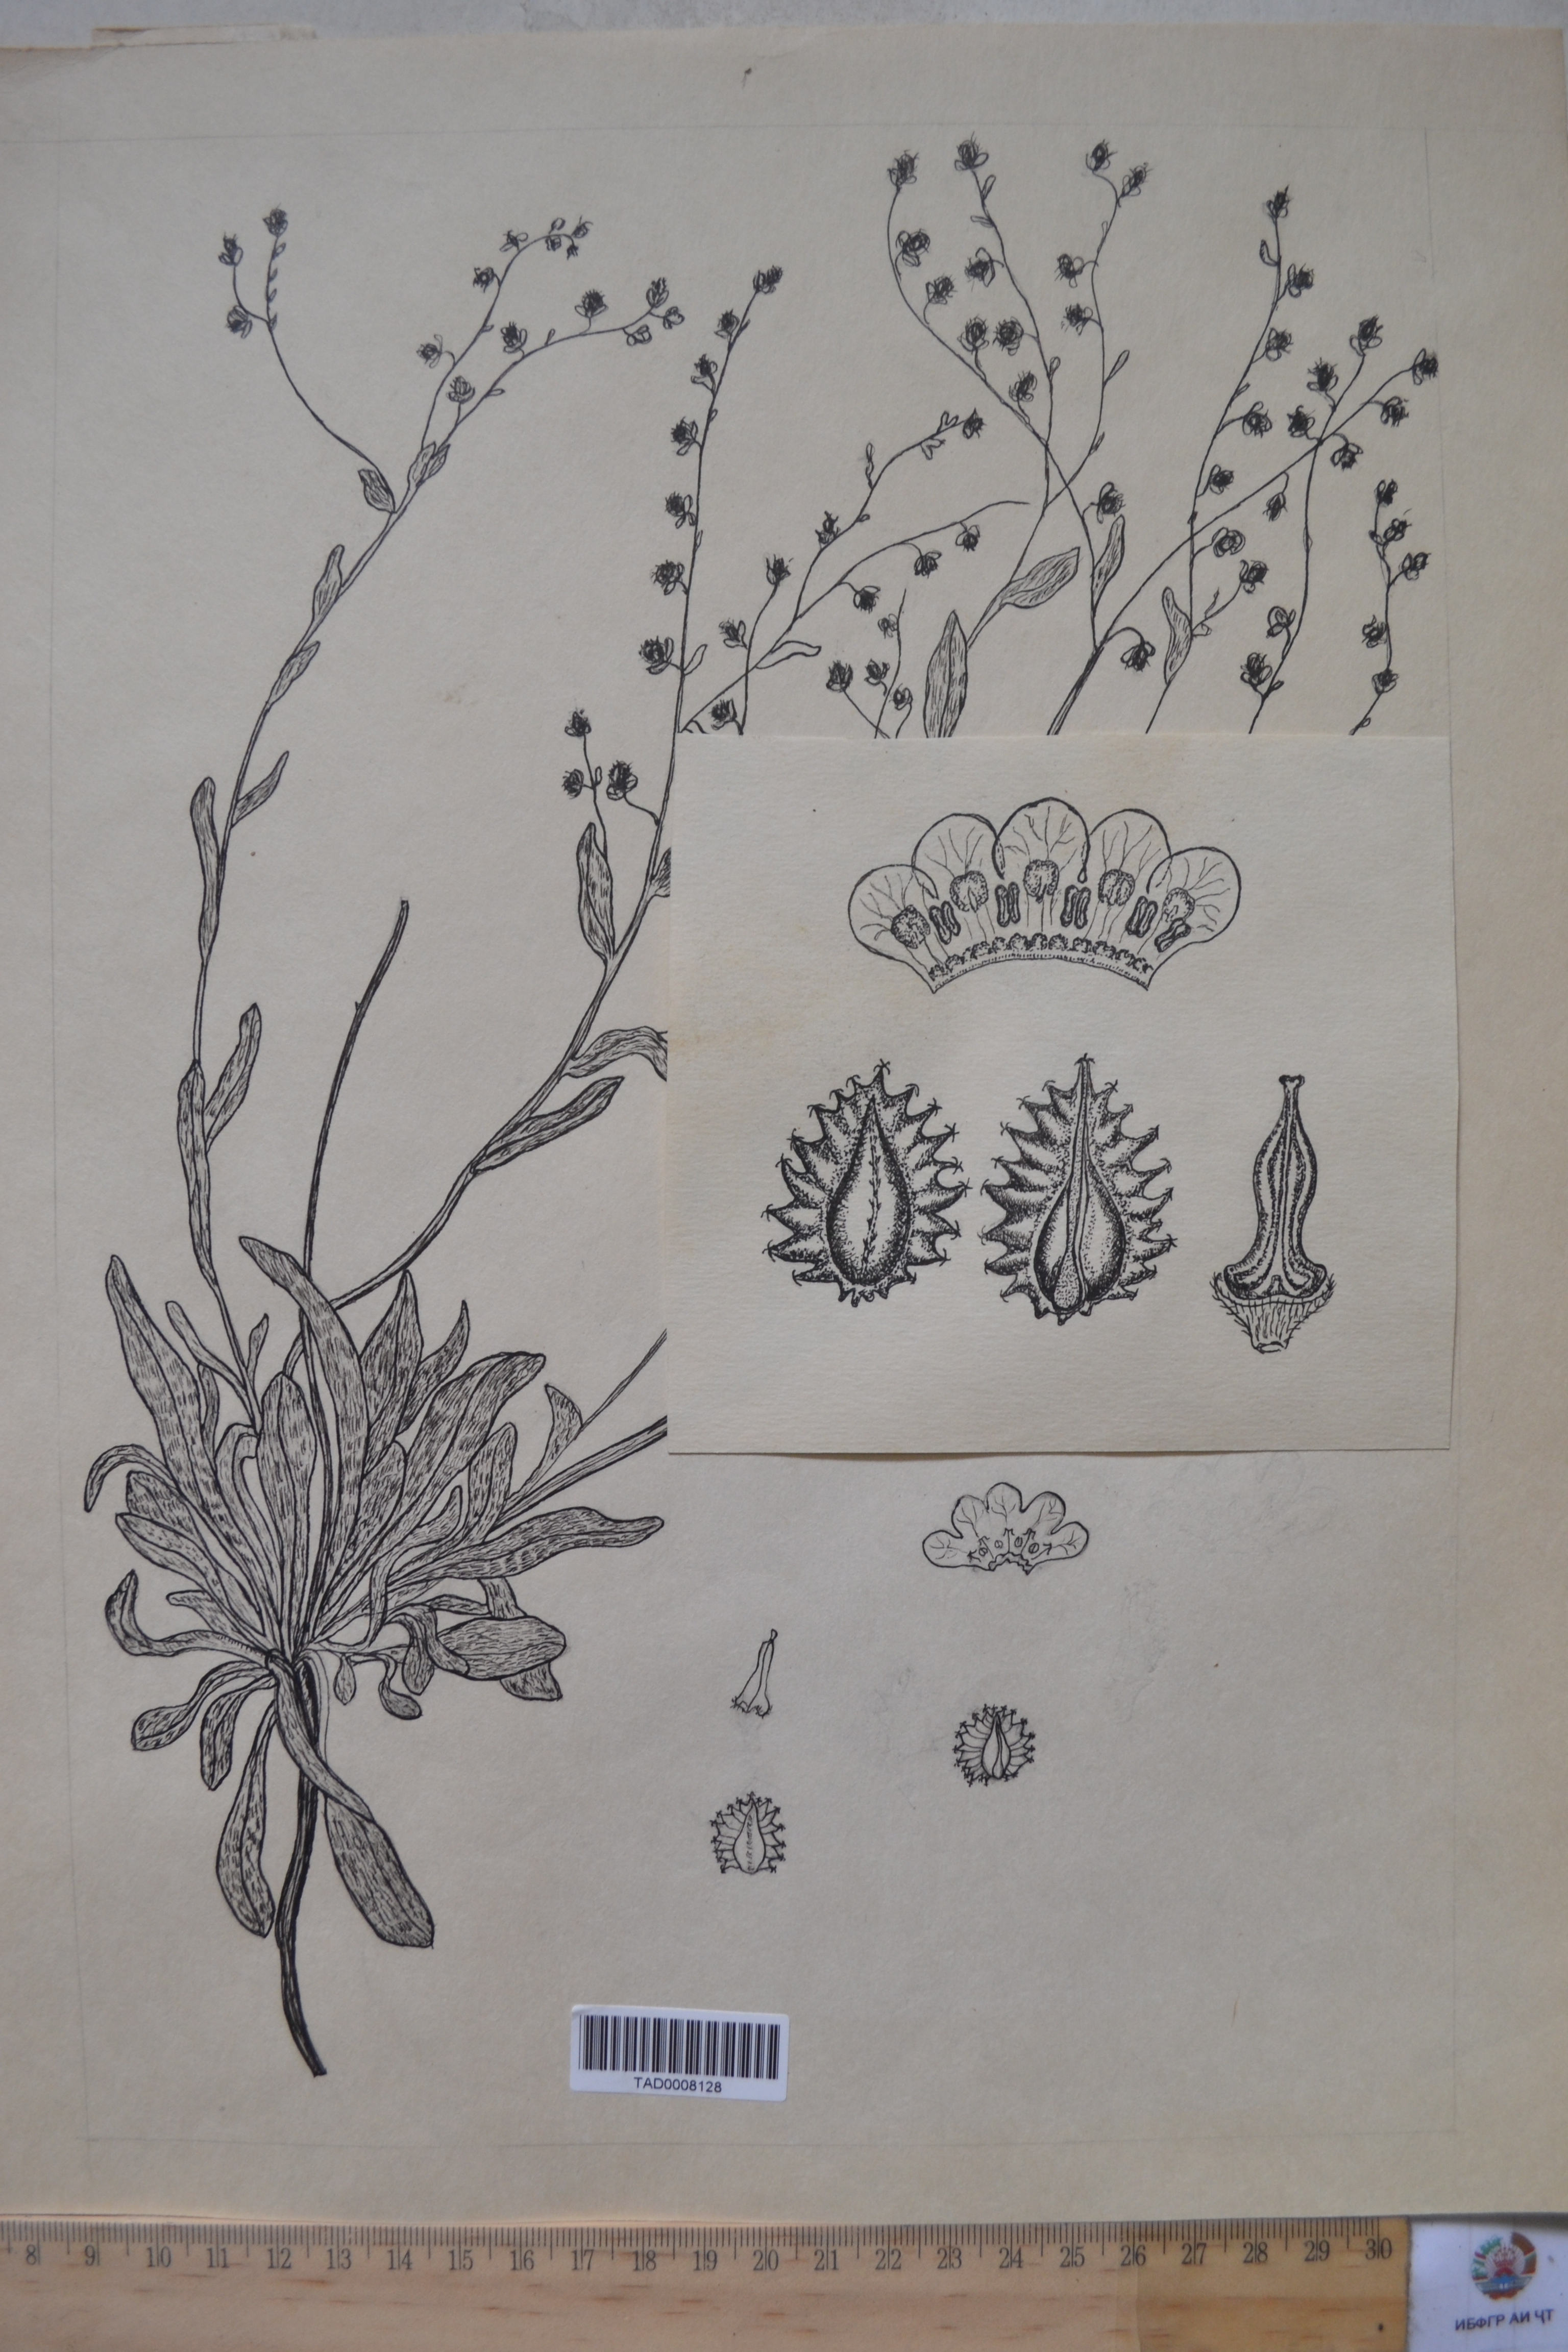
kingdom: Plantae
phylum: Tracheophyta
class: Magnoliopsida
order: Boraginales
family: Boraginaceae
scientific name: Boraginaceae
